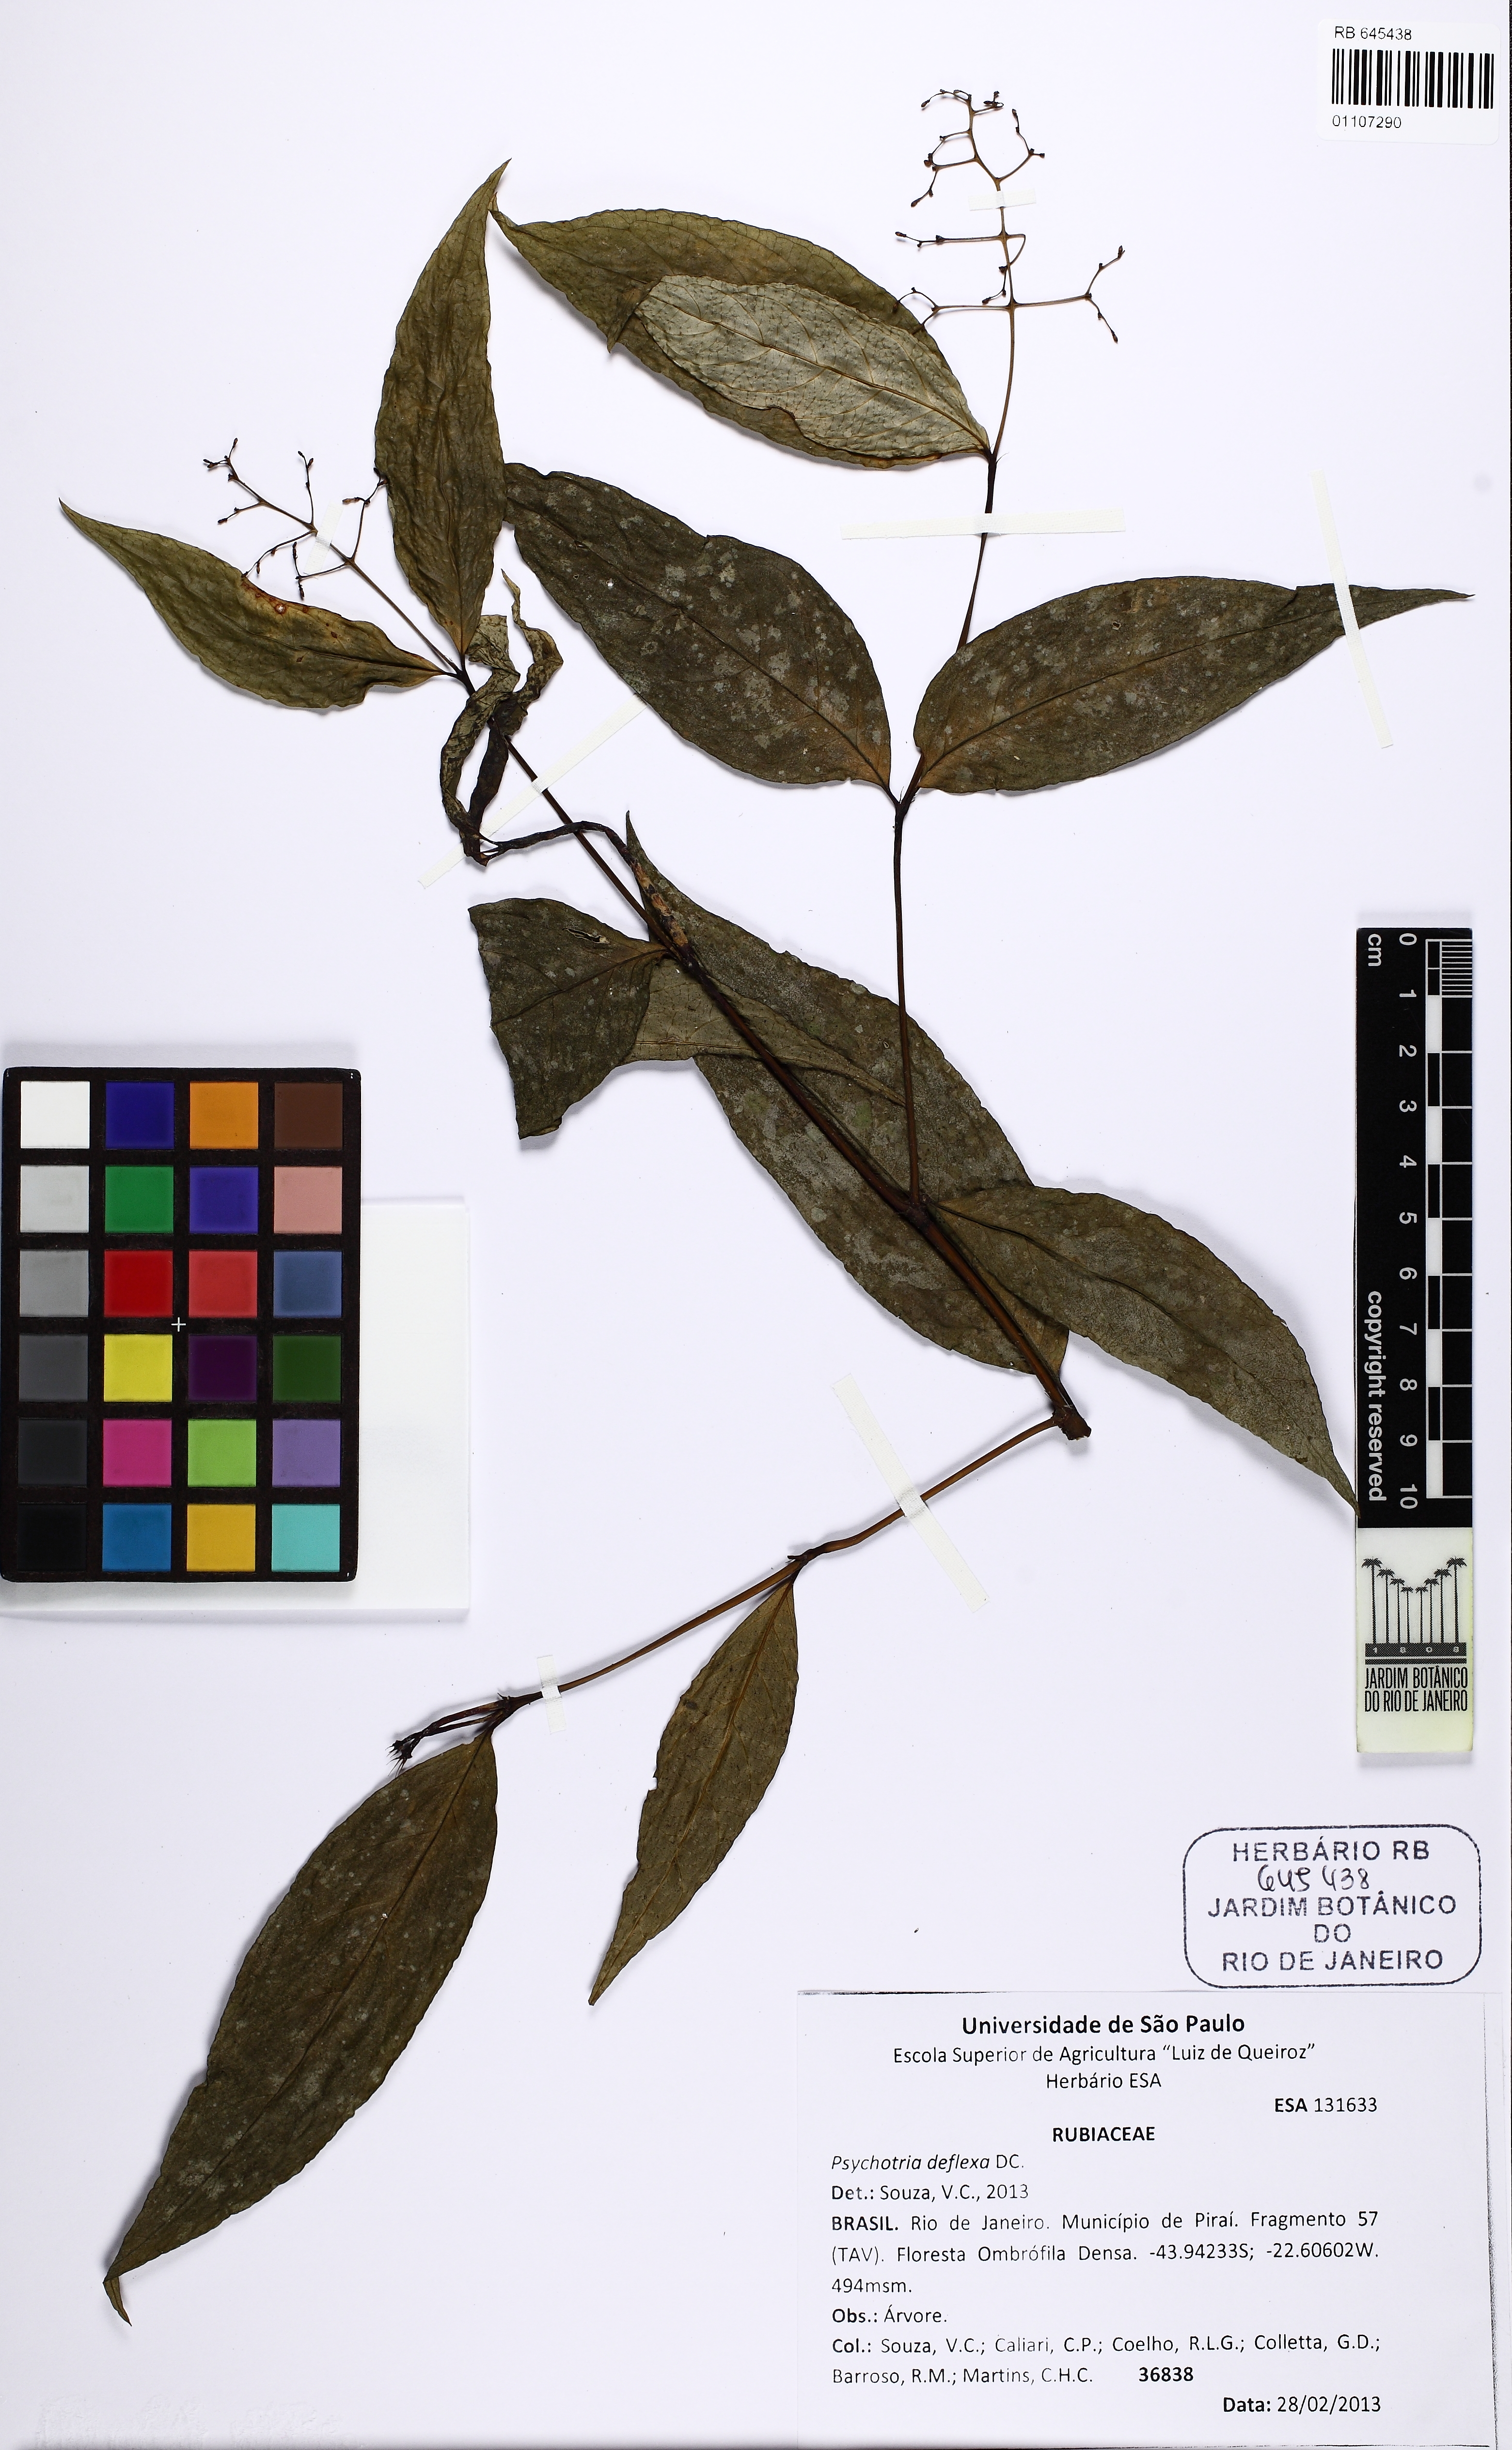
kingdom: Plantae
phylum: Tracheophyta
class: Magnoliopsida
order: Gentianales
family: Rubiaceae
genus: Palicourea
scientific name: Palicourea deflexa
